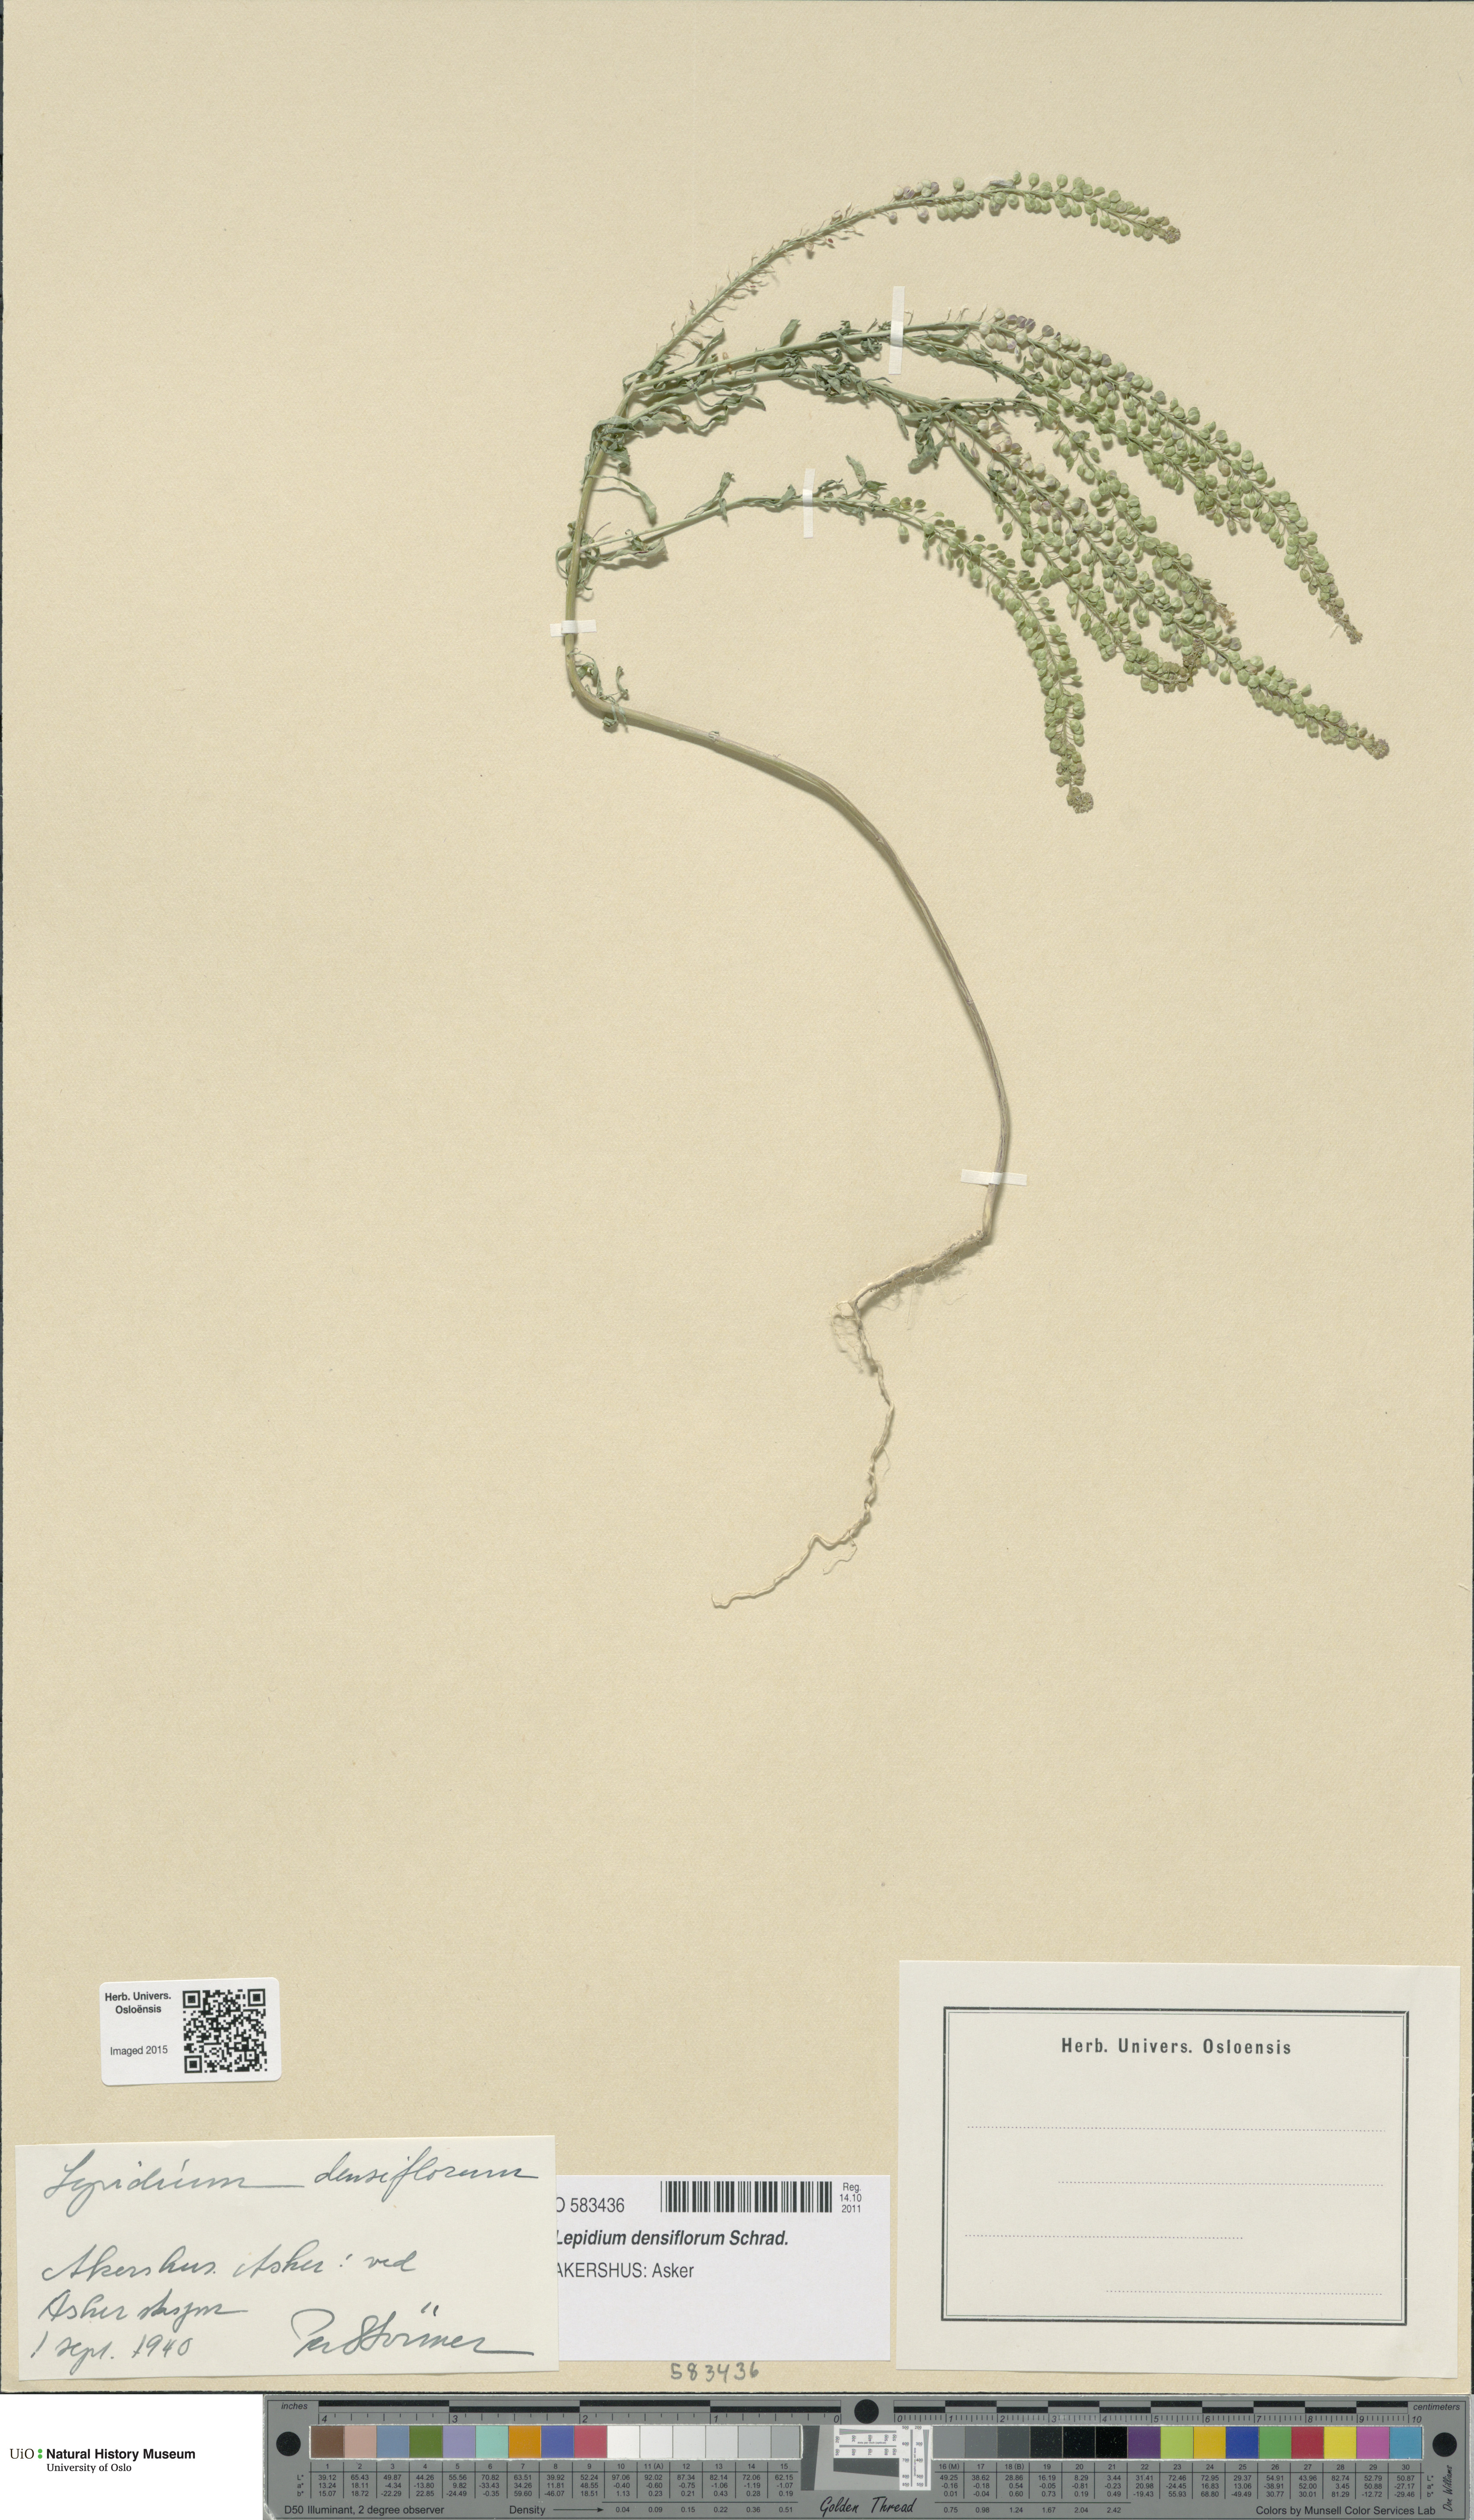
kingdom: Plantae
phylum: Tracheophyta
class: Magnoliopsida
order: Brassicales
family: Brassicaceae
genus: Lepidium
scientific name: Lepidium densiflorum
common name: Miner's pepperwort
